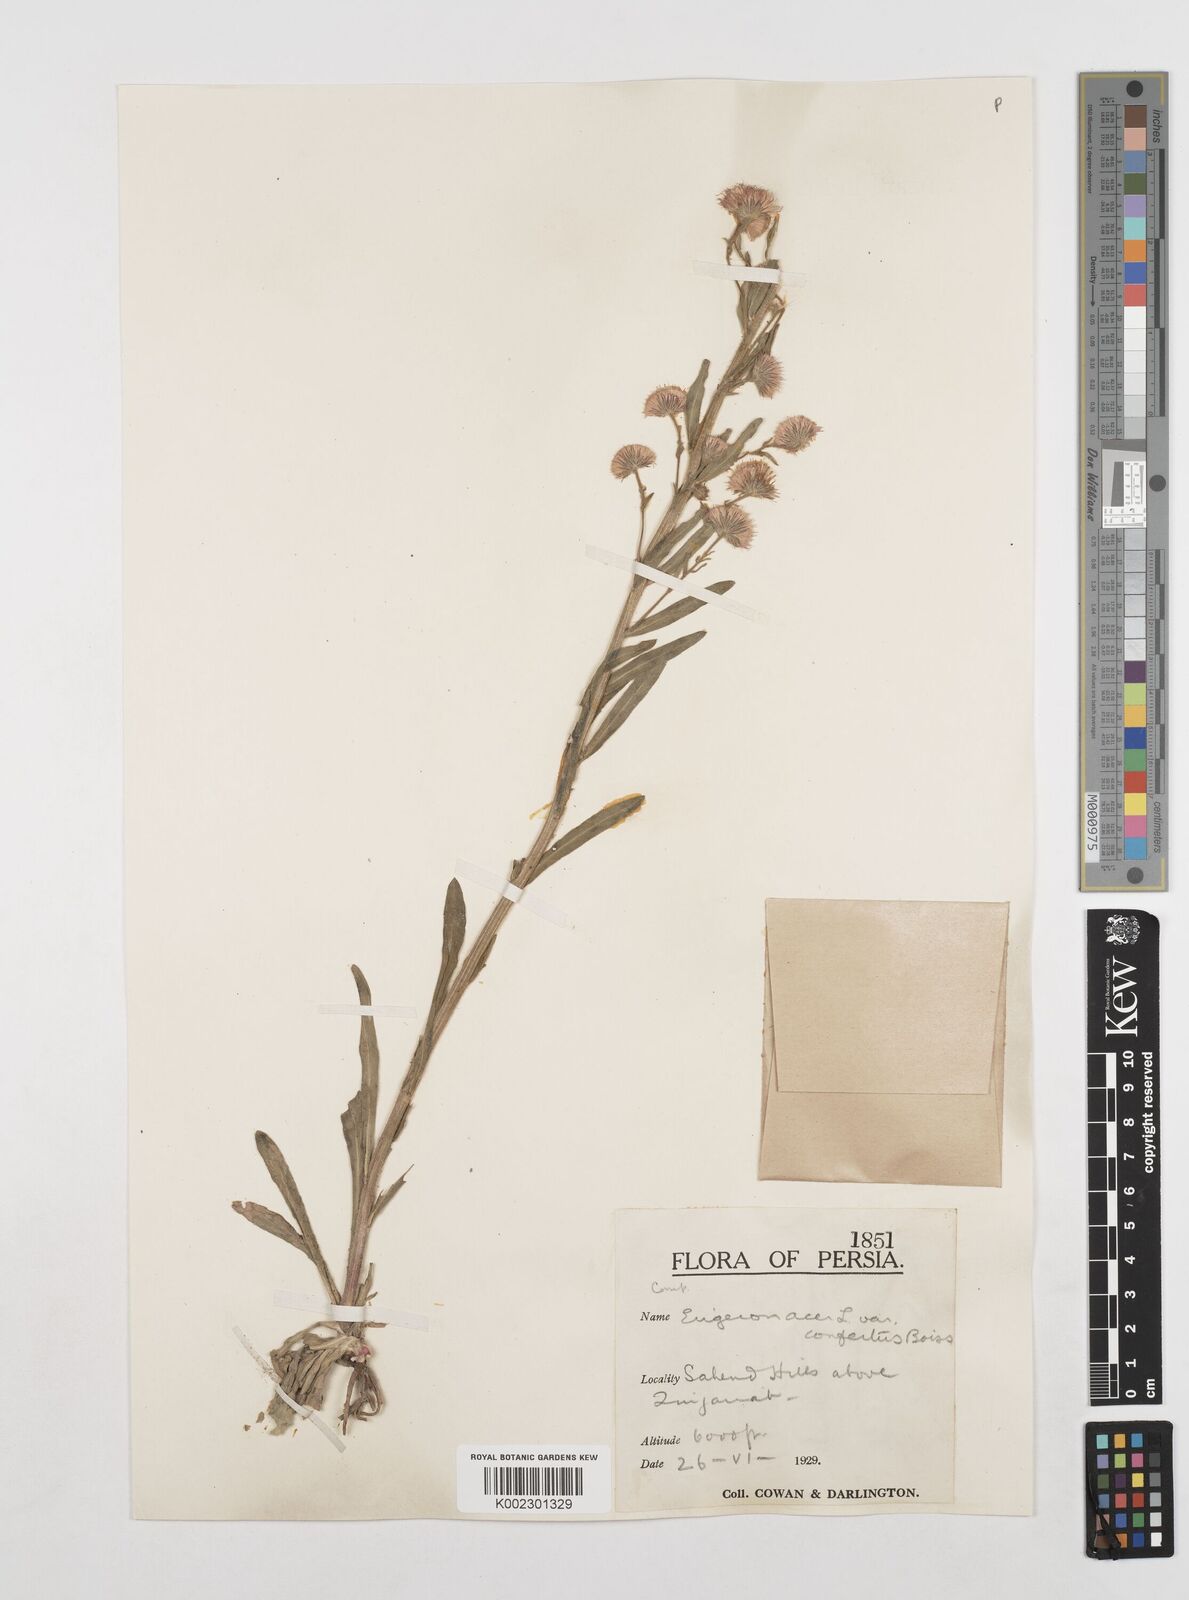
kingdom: Plantae
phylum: Tracheophyta
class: Magnoliopsida
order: Asterales
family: Asteraceae
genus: Erigeron
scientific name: Erigeron acris
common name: Blue fleabane
